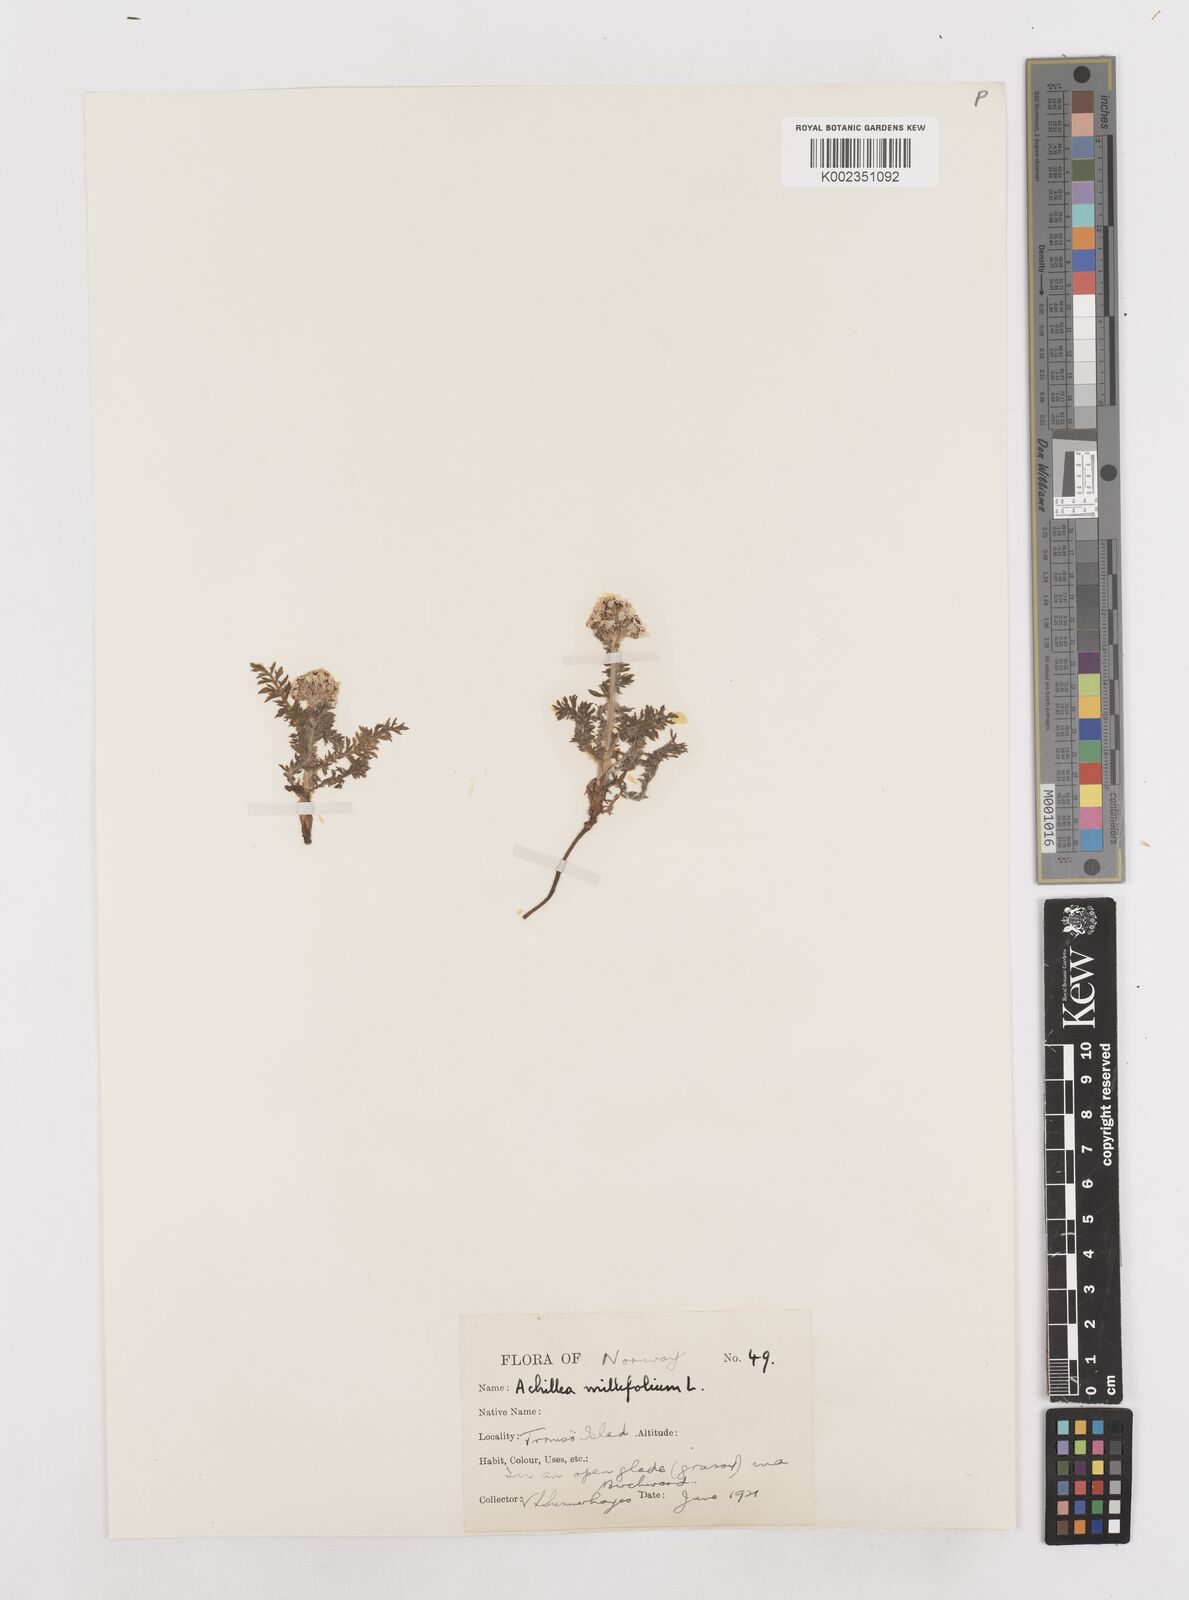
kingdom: Plantae
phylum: Tracheophyta
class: Magnoliopsida
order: Asterales
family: Asteraceae
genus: Achillea
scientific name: Achillea millefolium
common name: Yarrow
